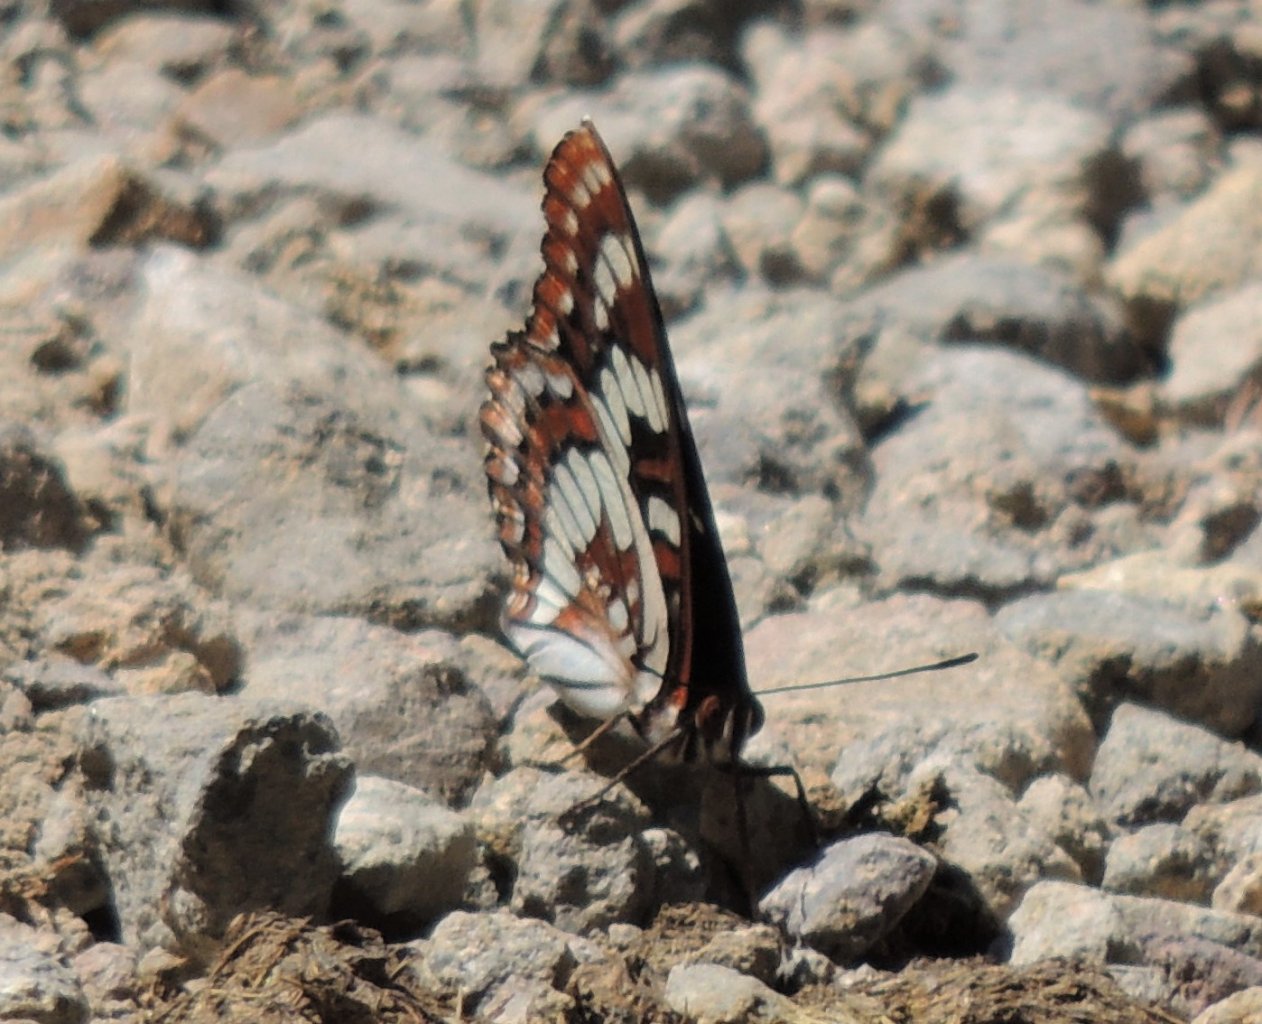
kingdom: Animalia
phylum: Arthropoda
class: Insecta
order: Lepidoptera
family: Nymphalidae
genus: Limenitis
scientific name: Limenitis lorquini
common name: Lorquin's Admiral
